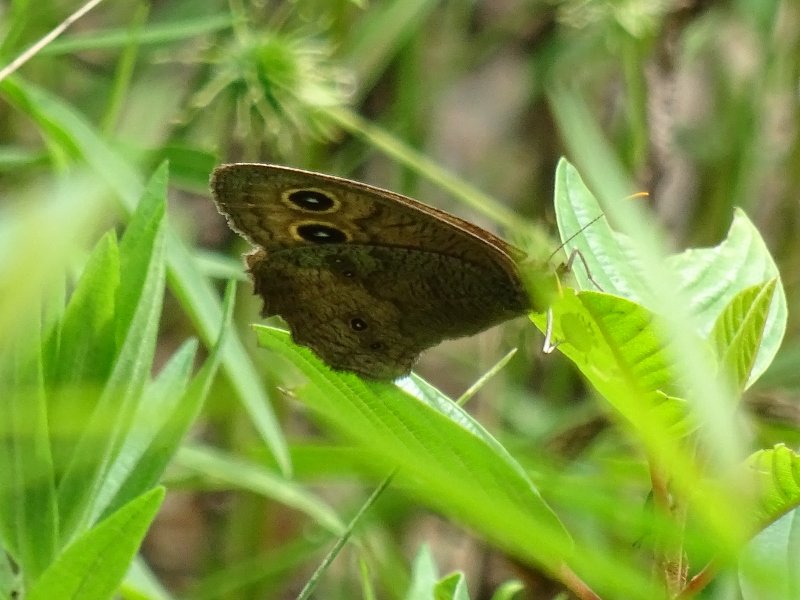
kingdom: Animalia
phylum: Arthropoda
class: Insecta
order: Lepidoptera
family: Nymphalidae
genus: Cercyonis
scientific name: Cercyonis pegala
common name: Common Wood-Nymph
